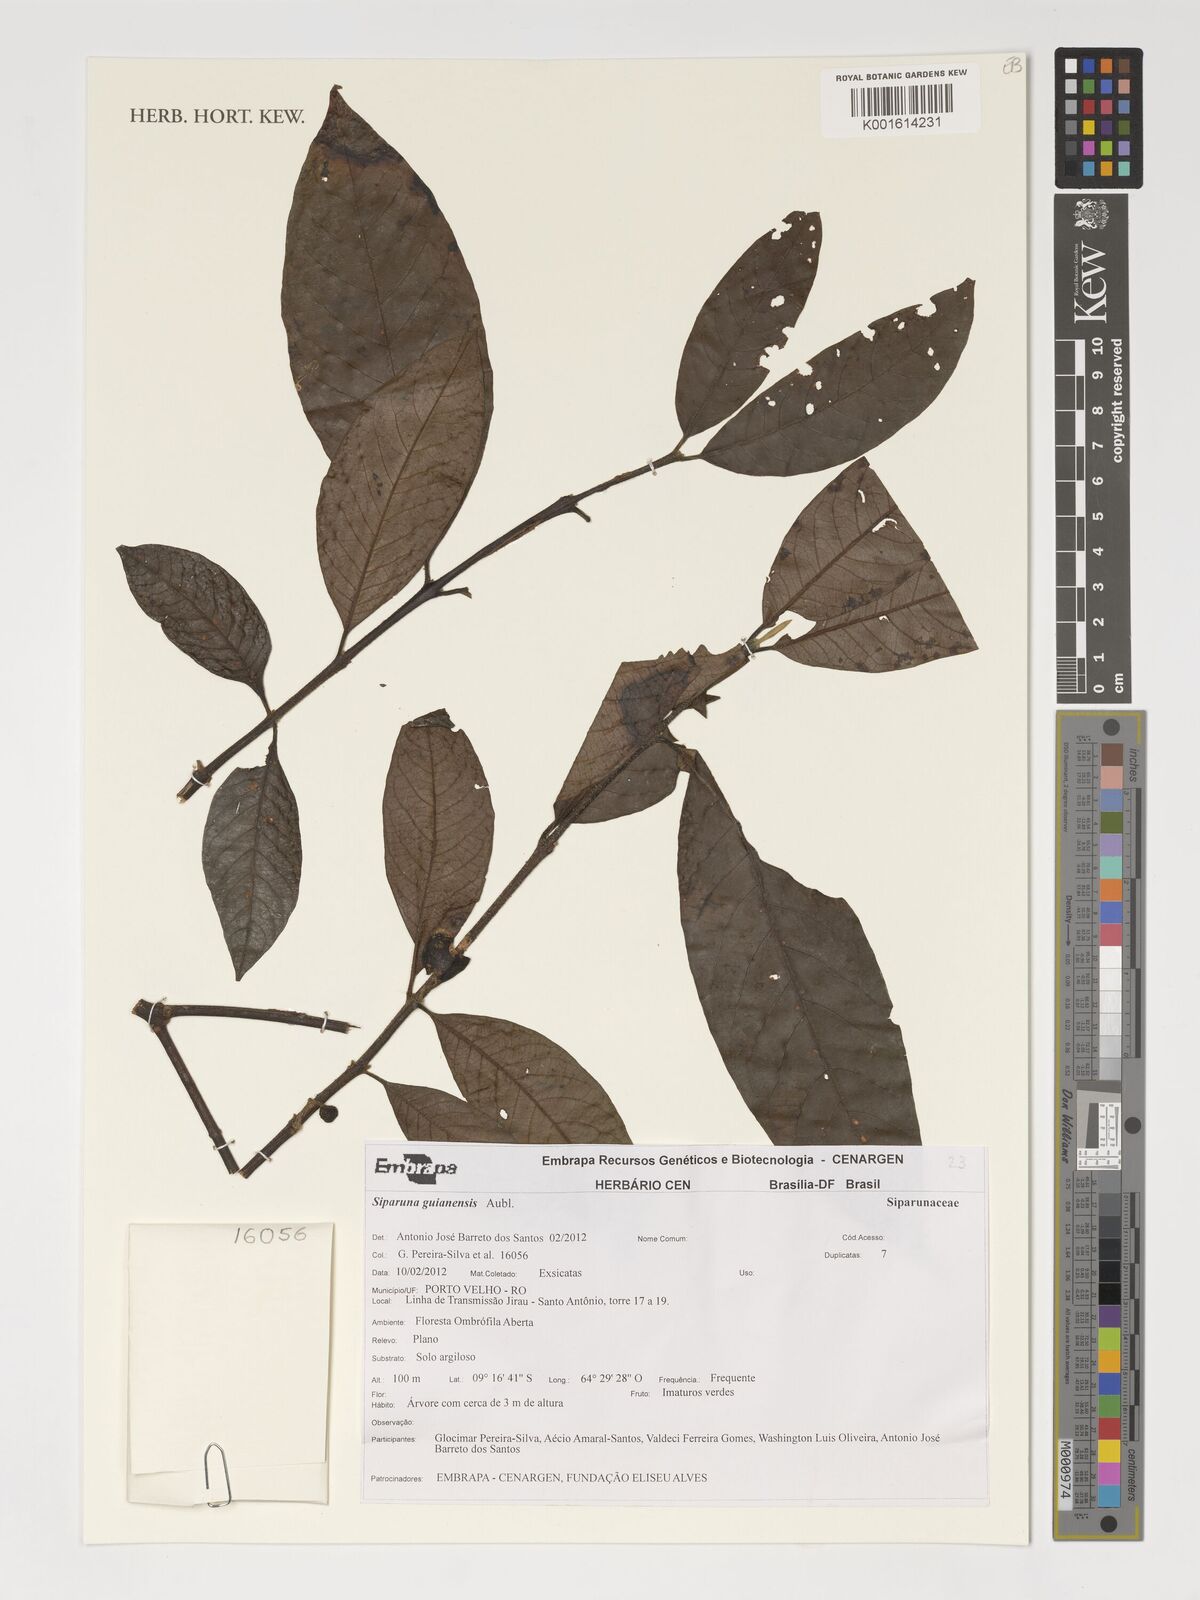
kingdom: Plantae
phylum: Tracheophyta
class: Magnoliopsida
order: Laurales
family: Siparunaceae
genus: Siparuna
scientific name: Siparuna guianensis
